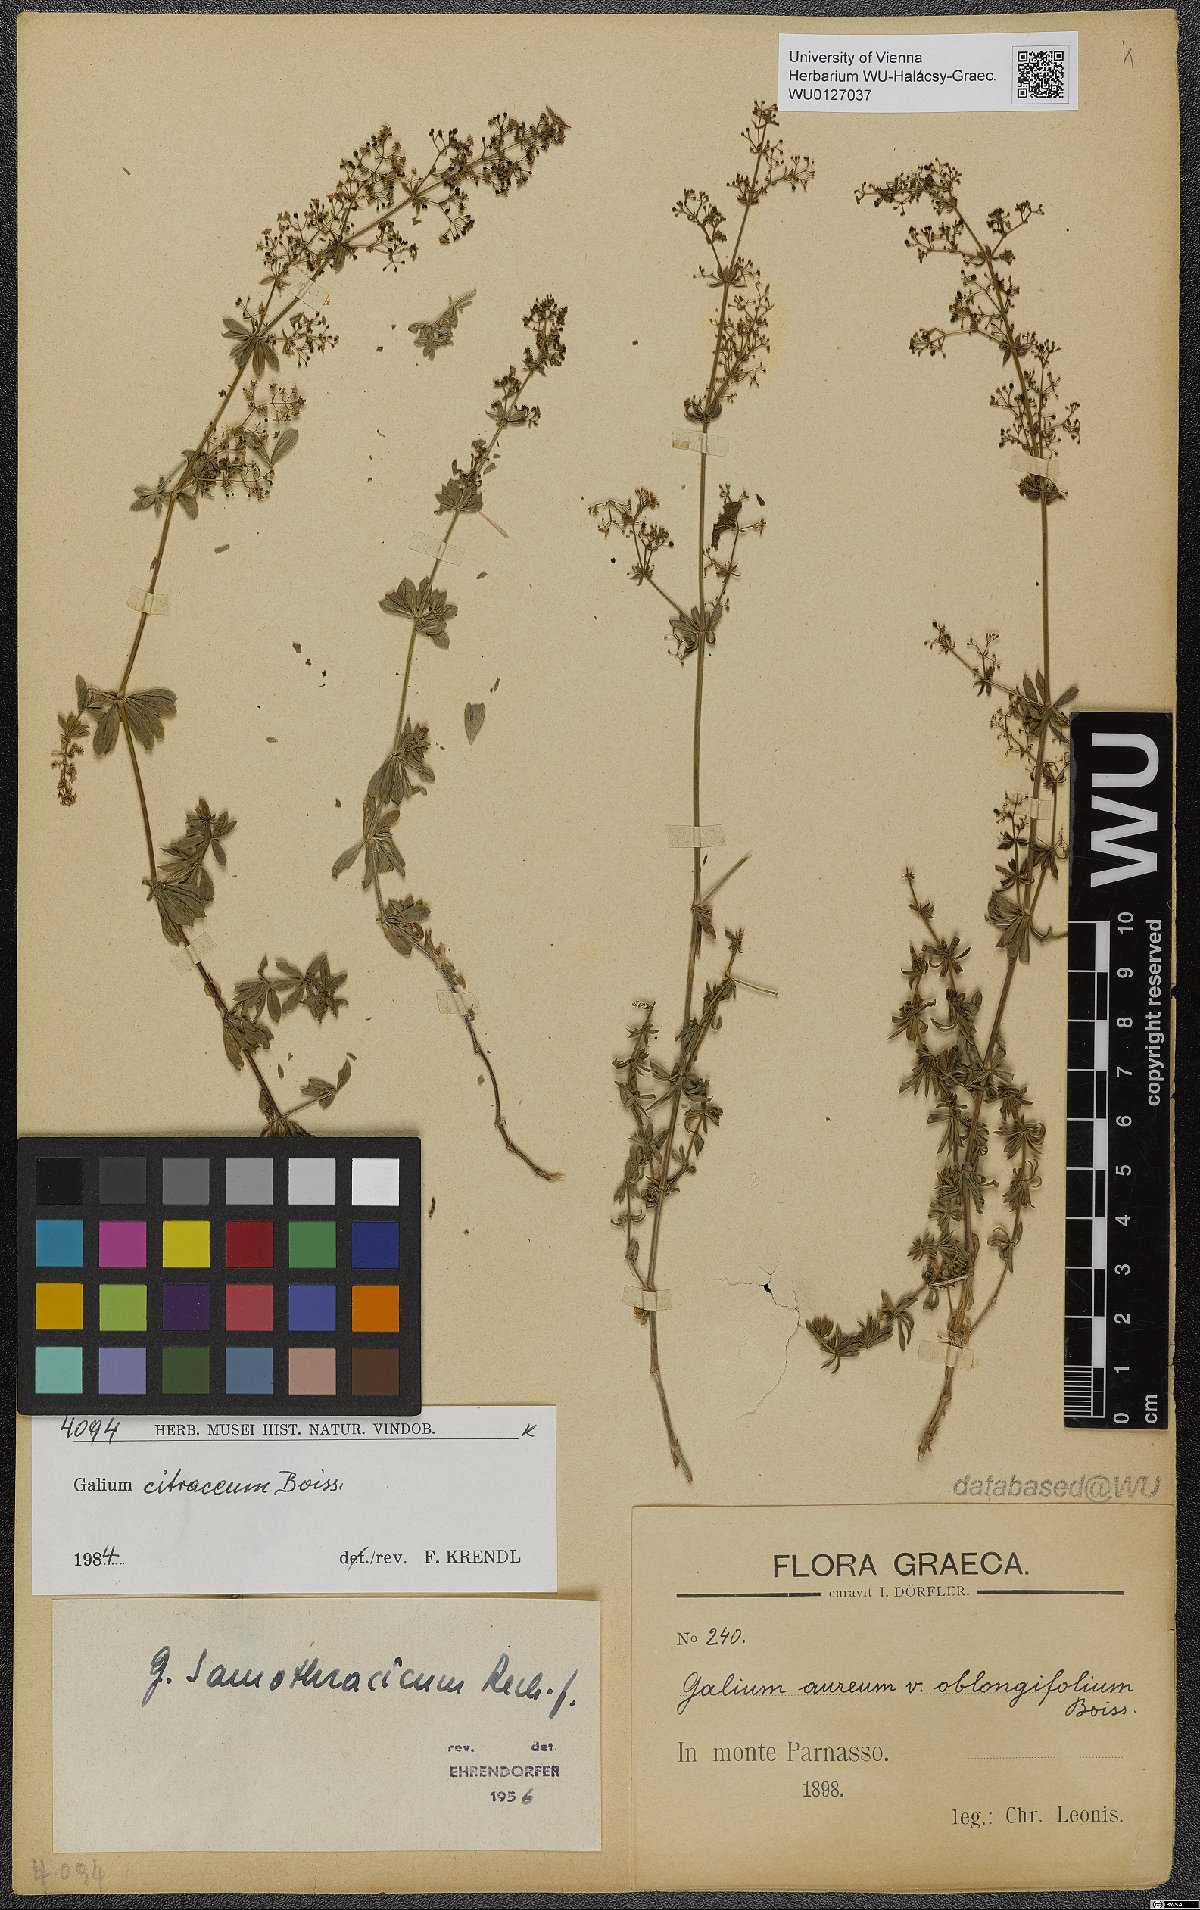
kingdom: Plantae
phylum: Tracheophyta
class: Magnoliopsida
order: Gentianales
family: Rubiaceae
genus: Galium
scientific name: Galium citraceum
